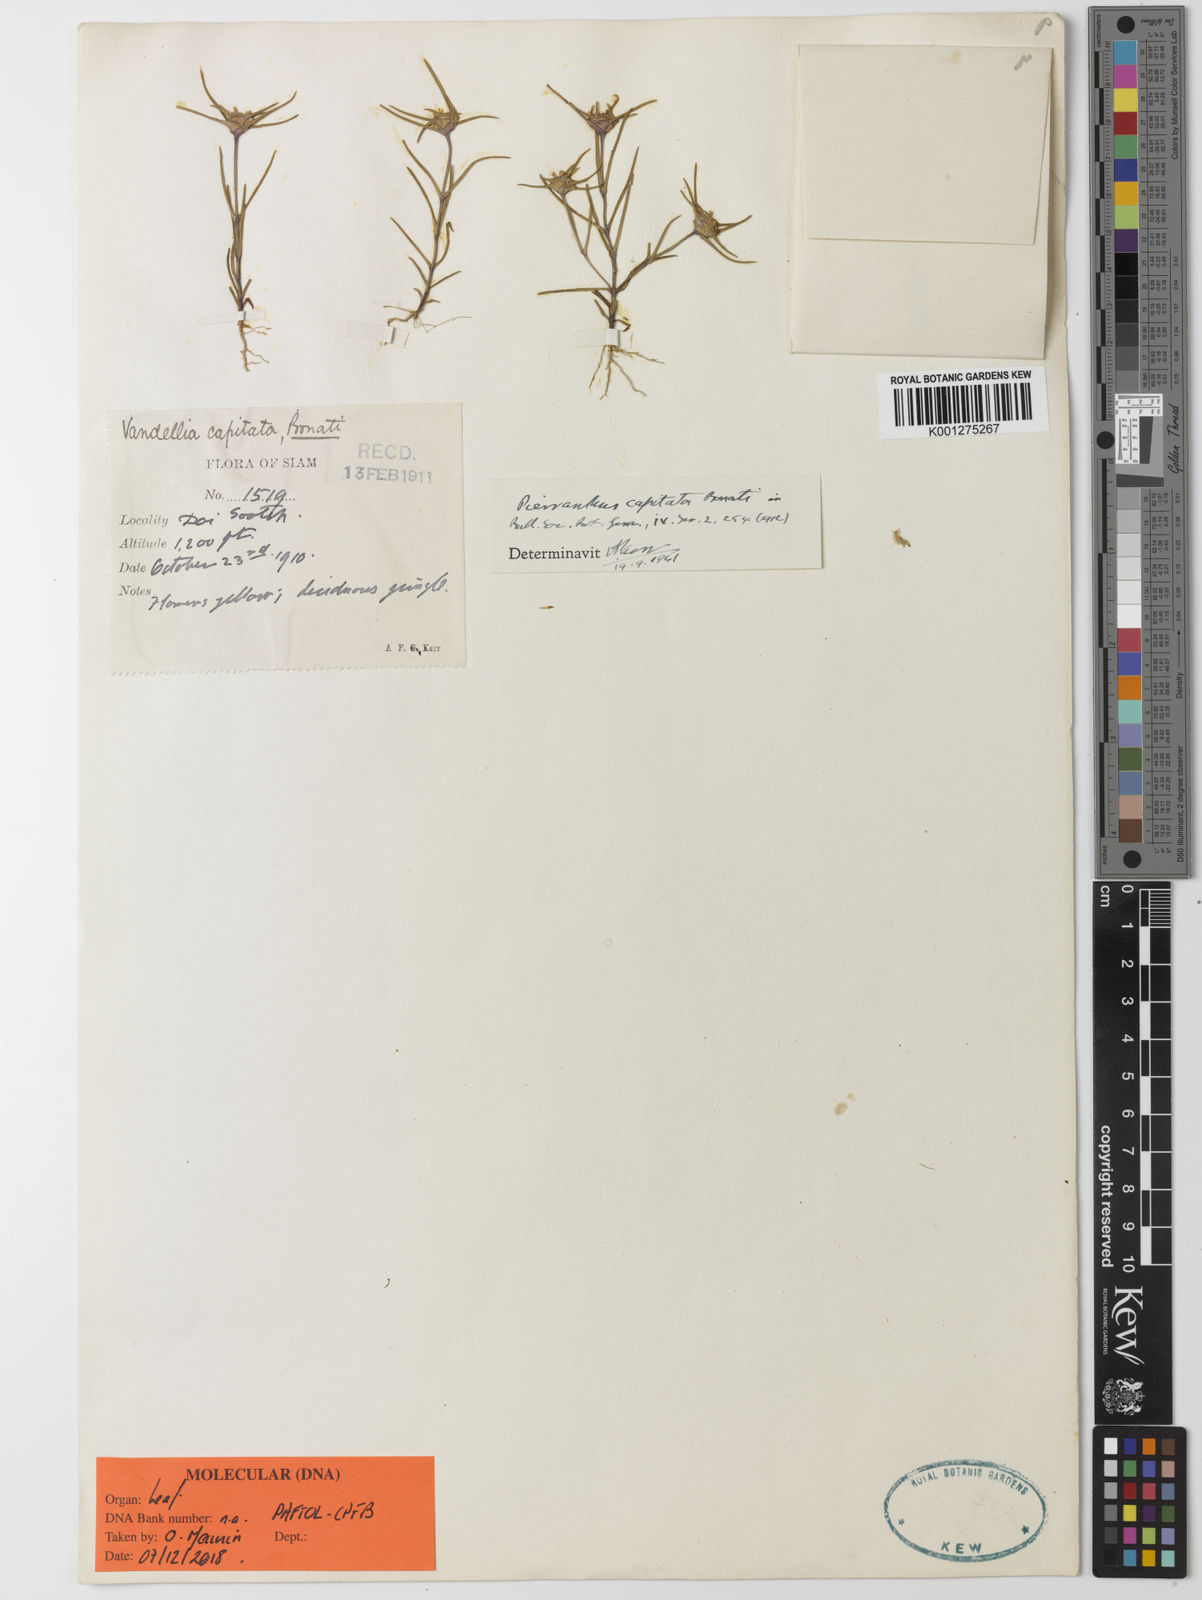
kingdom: Plantae
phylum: Tracheophyta
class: Magnoliopsida
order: Lamiales
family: Linderniaceae
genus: Pierranthus
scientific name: Pierranthus capitatus
